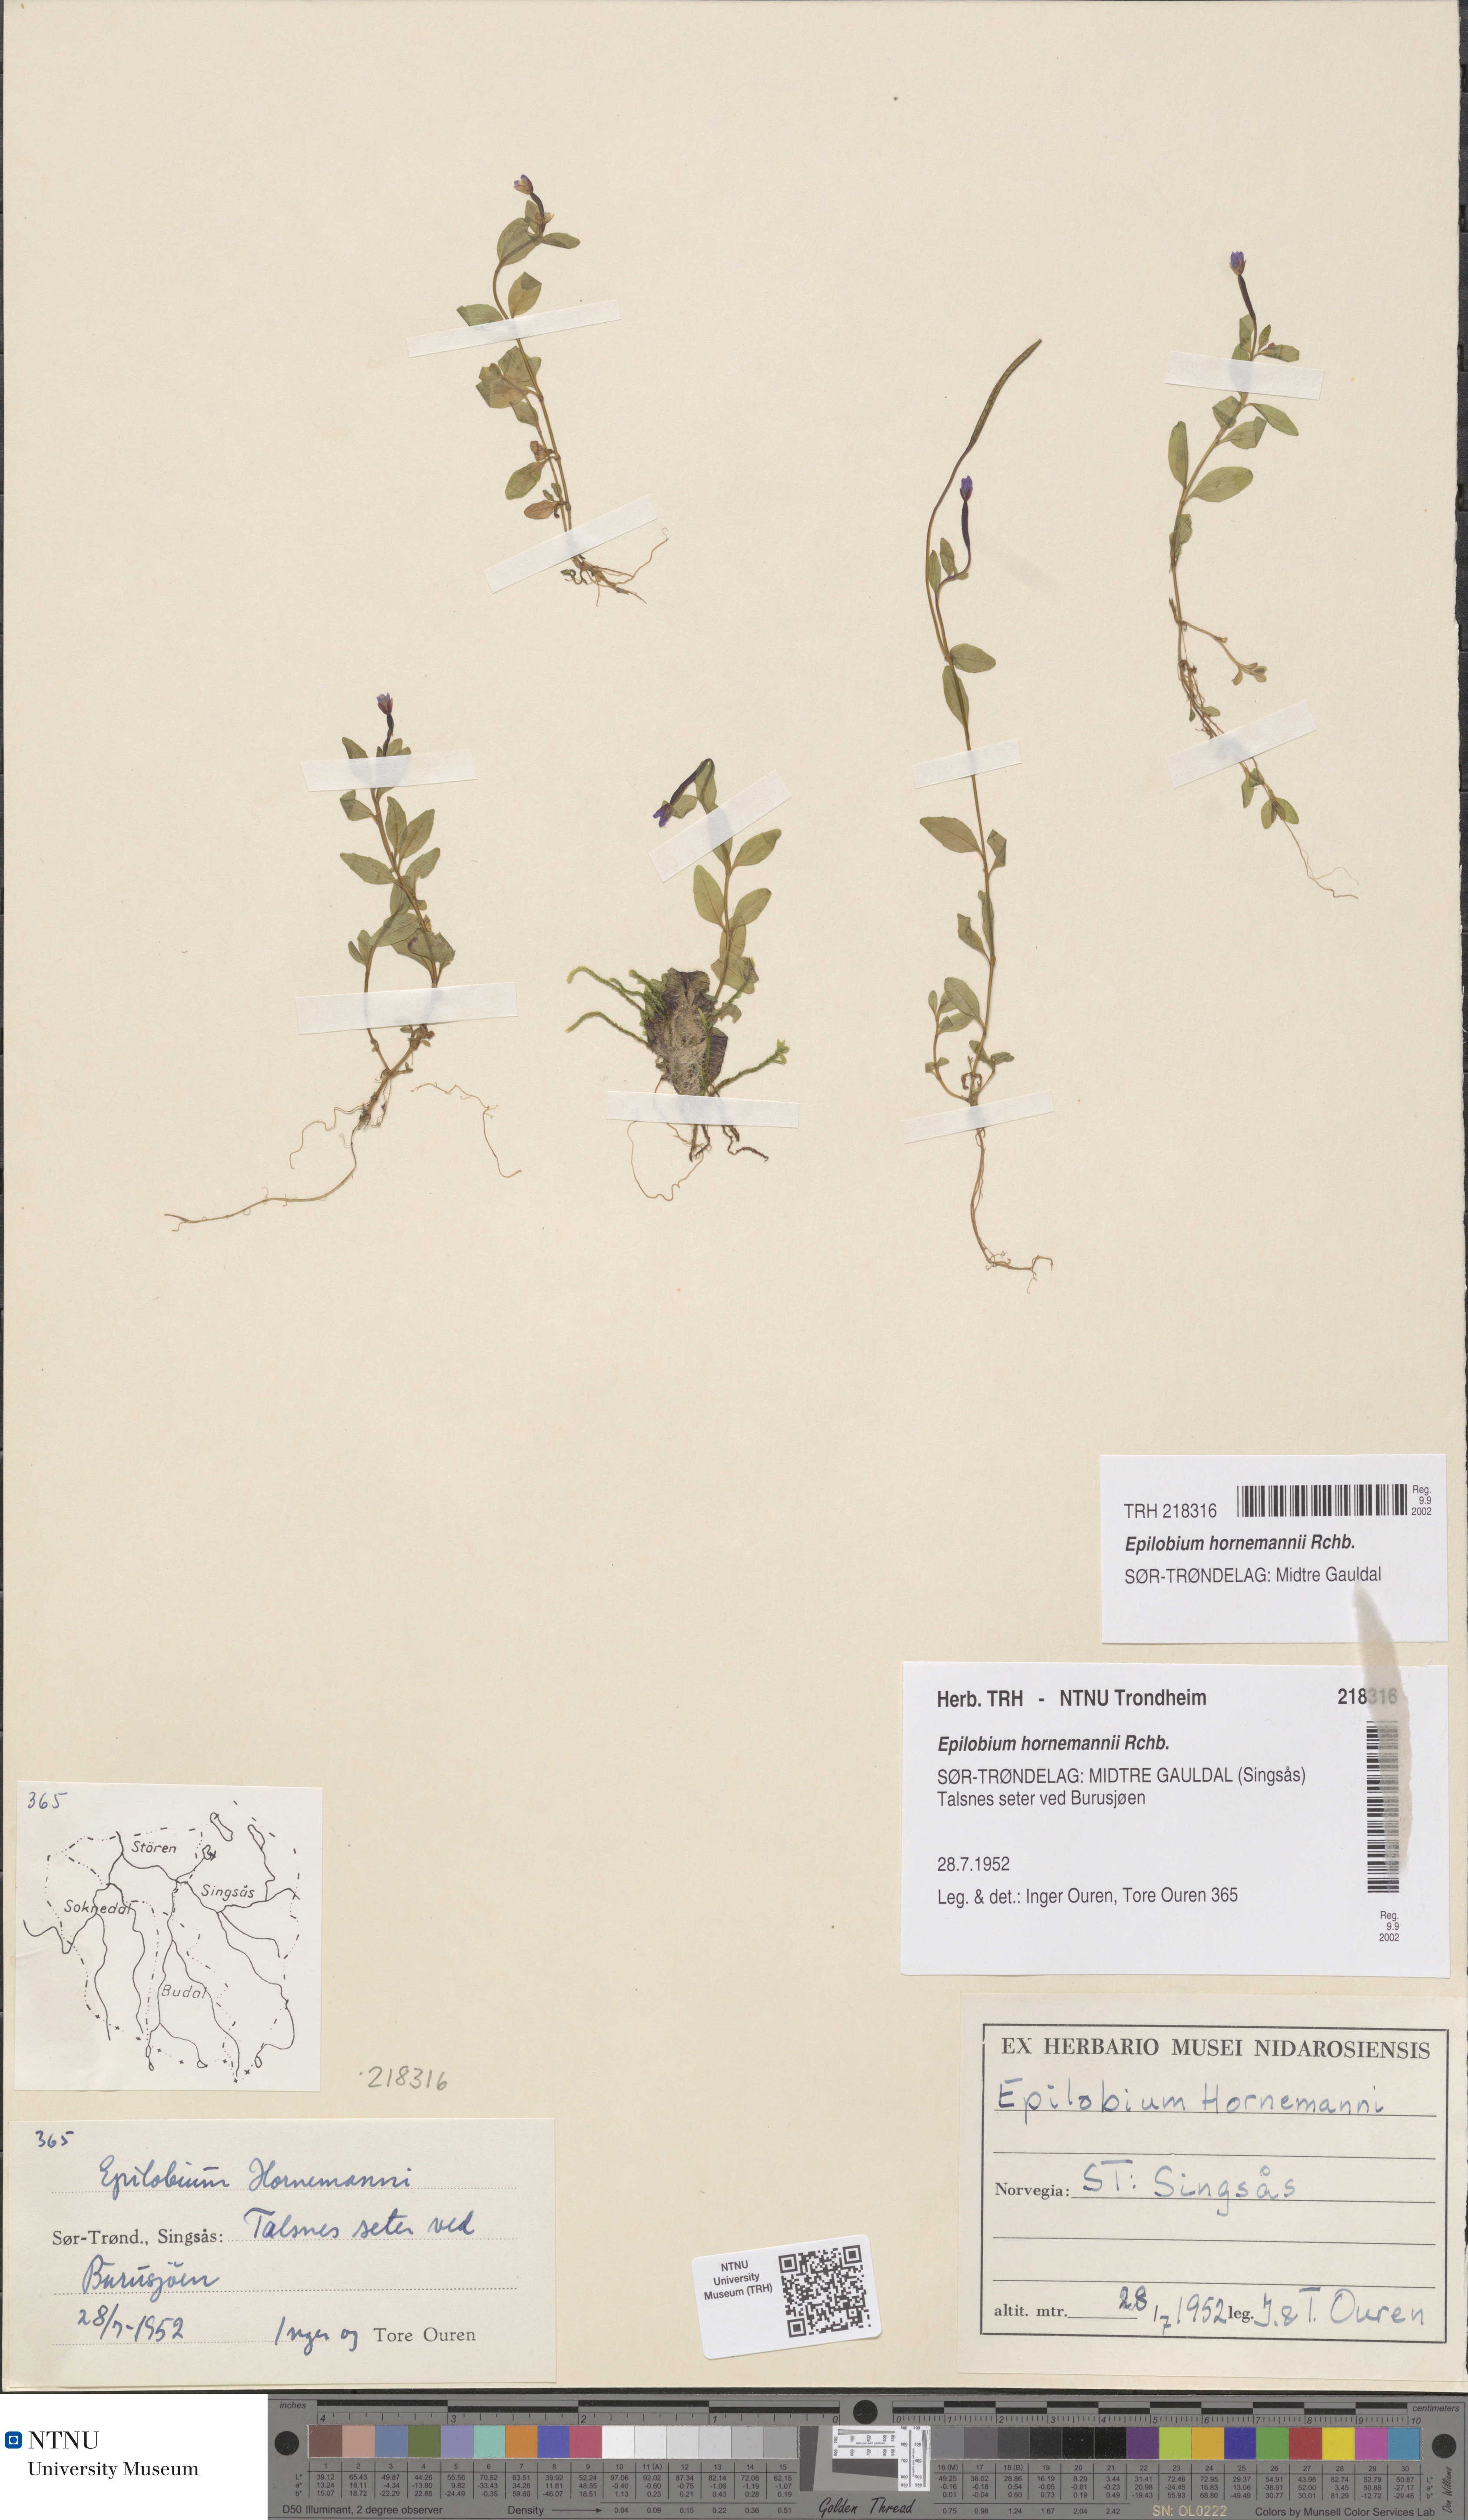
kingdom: Plantae
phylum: Tracheophyta
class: Magnoliopsida
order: Myrtales
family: Onagraceae
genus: Epilobium
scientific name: Epilobium hornemannii
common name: Hornemann's willowherb
